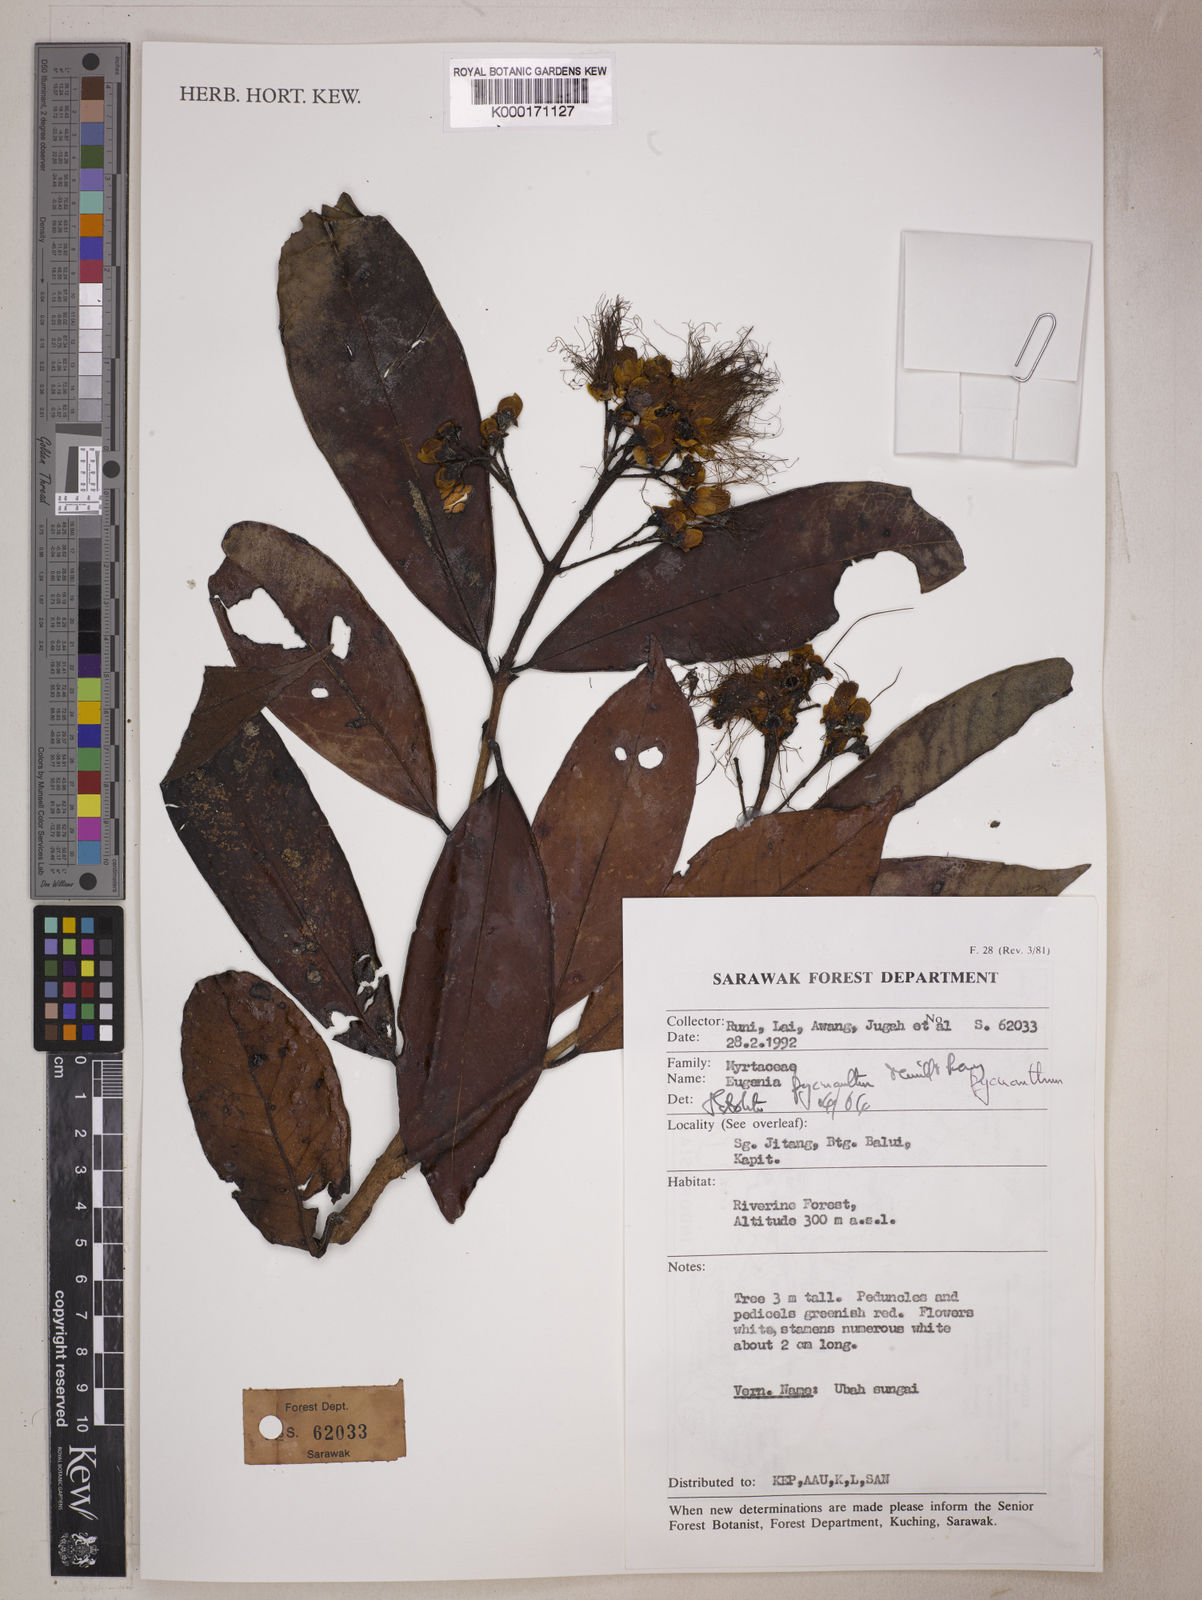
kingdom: Plantae
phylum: Tracheophyta
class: Magnoliopsida
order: Myrtales
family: Myrtaceae
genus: Syzygium
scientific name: Syzygium pycnanthum
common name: Wild rose
